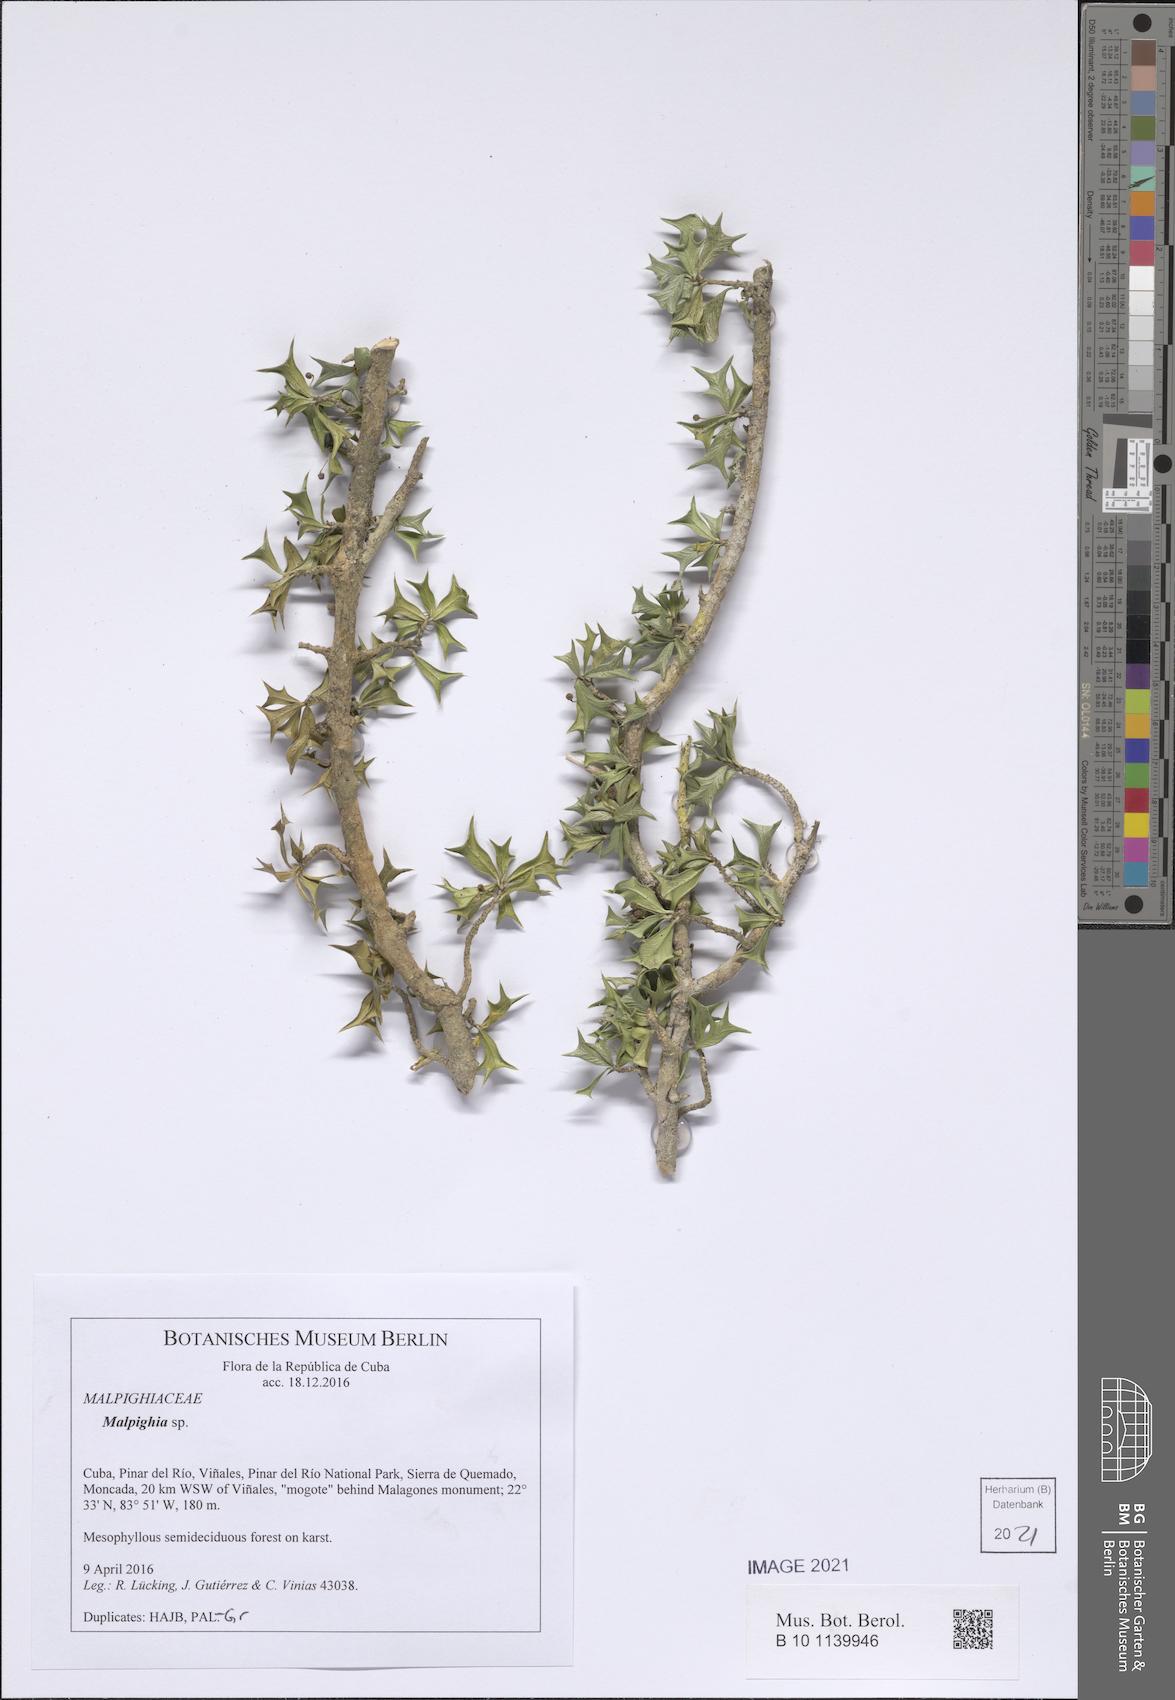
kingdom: Plantae
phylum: Tracheophyta
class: Magnoliopsida
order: Malpighiales
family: Malpighiaceae
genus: Malpighia
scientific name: Malpighia apiculata
